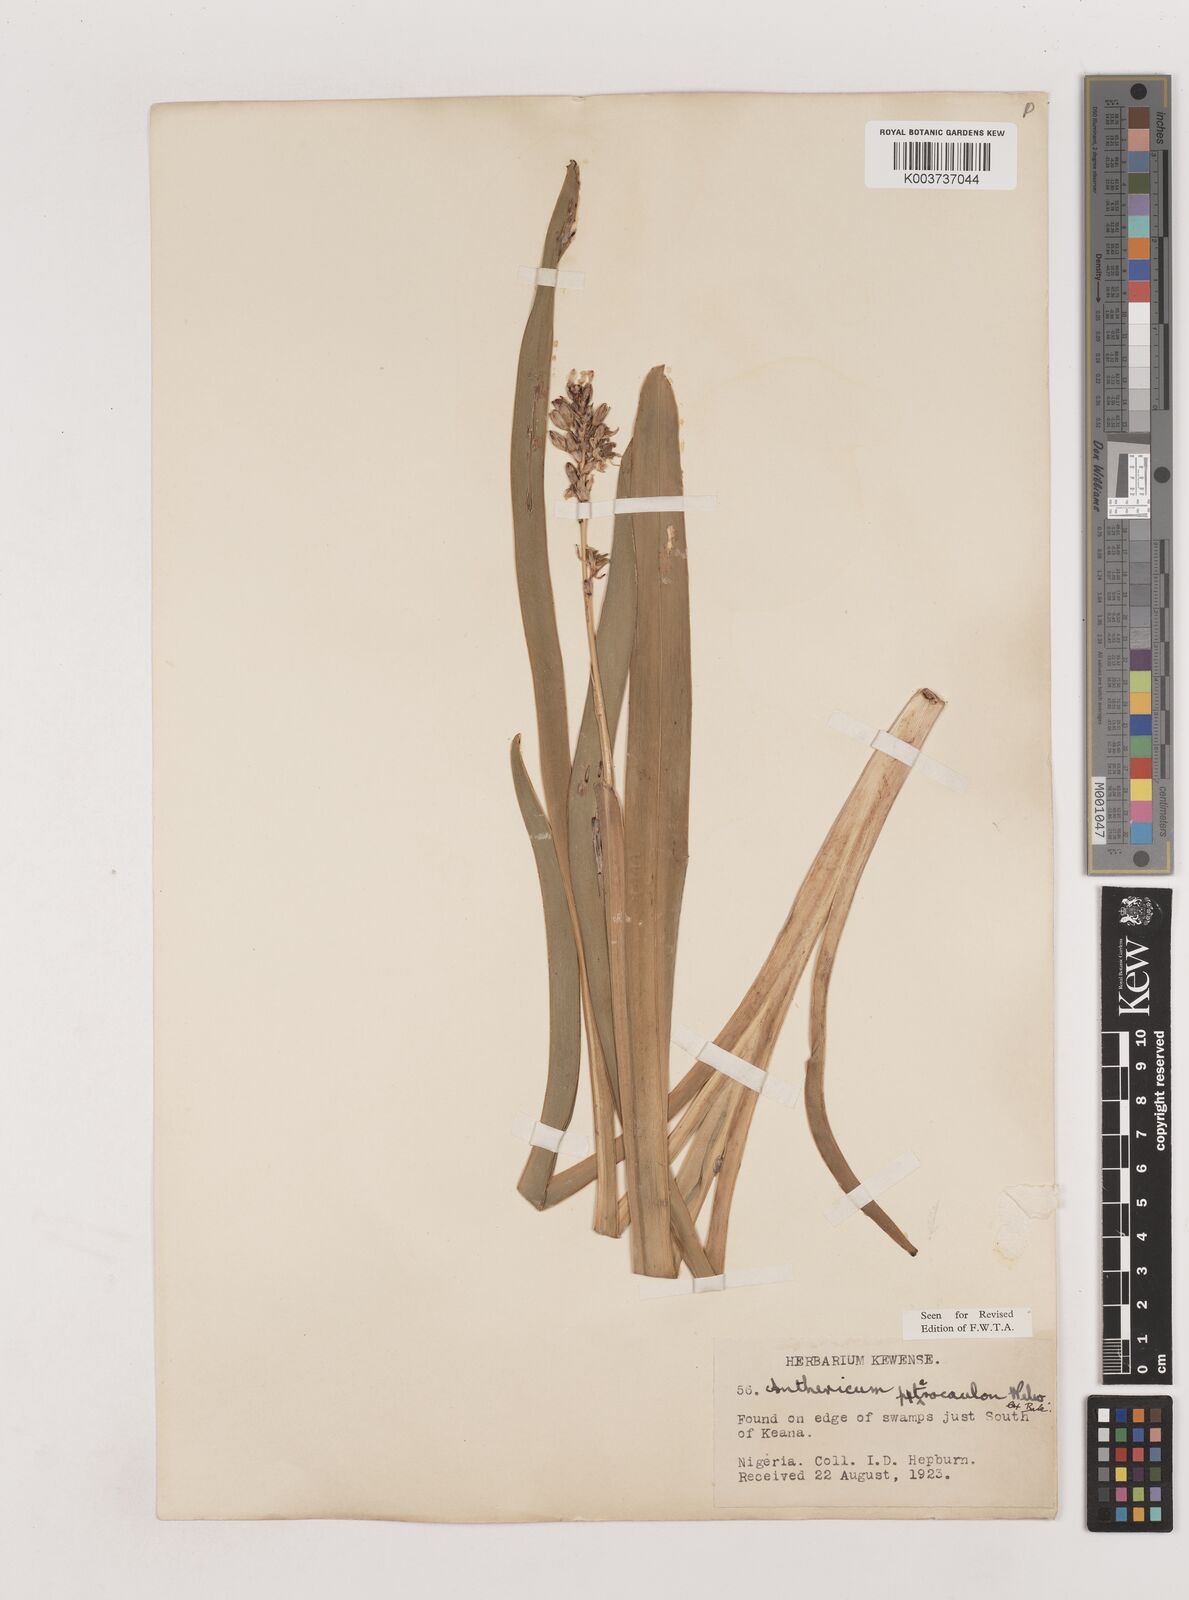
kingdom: Plantae
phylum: Tracheophyta
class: Liliopsida
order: Asparagales
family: Asparagaceae
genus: Chlorophytum
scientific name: Chlorophytum cameronii
